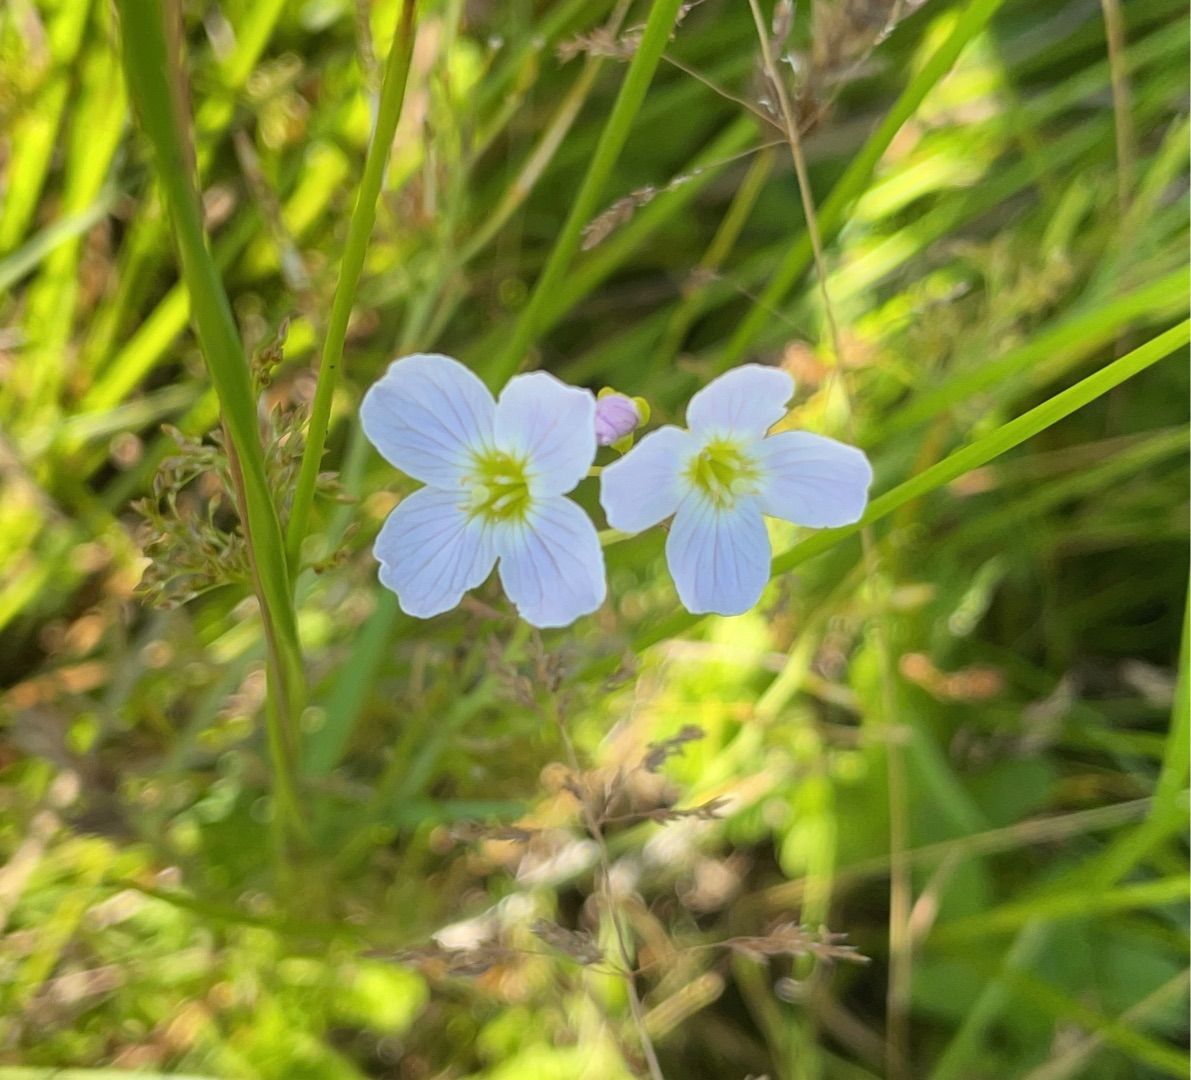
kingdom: Plantae
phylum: Tracheophyta
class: Magnoliopsida
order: Brassicales
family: Brassicaceae
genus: Cardamine
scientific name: Cardamine pratensis
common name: Engkarse
